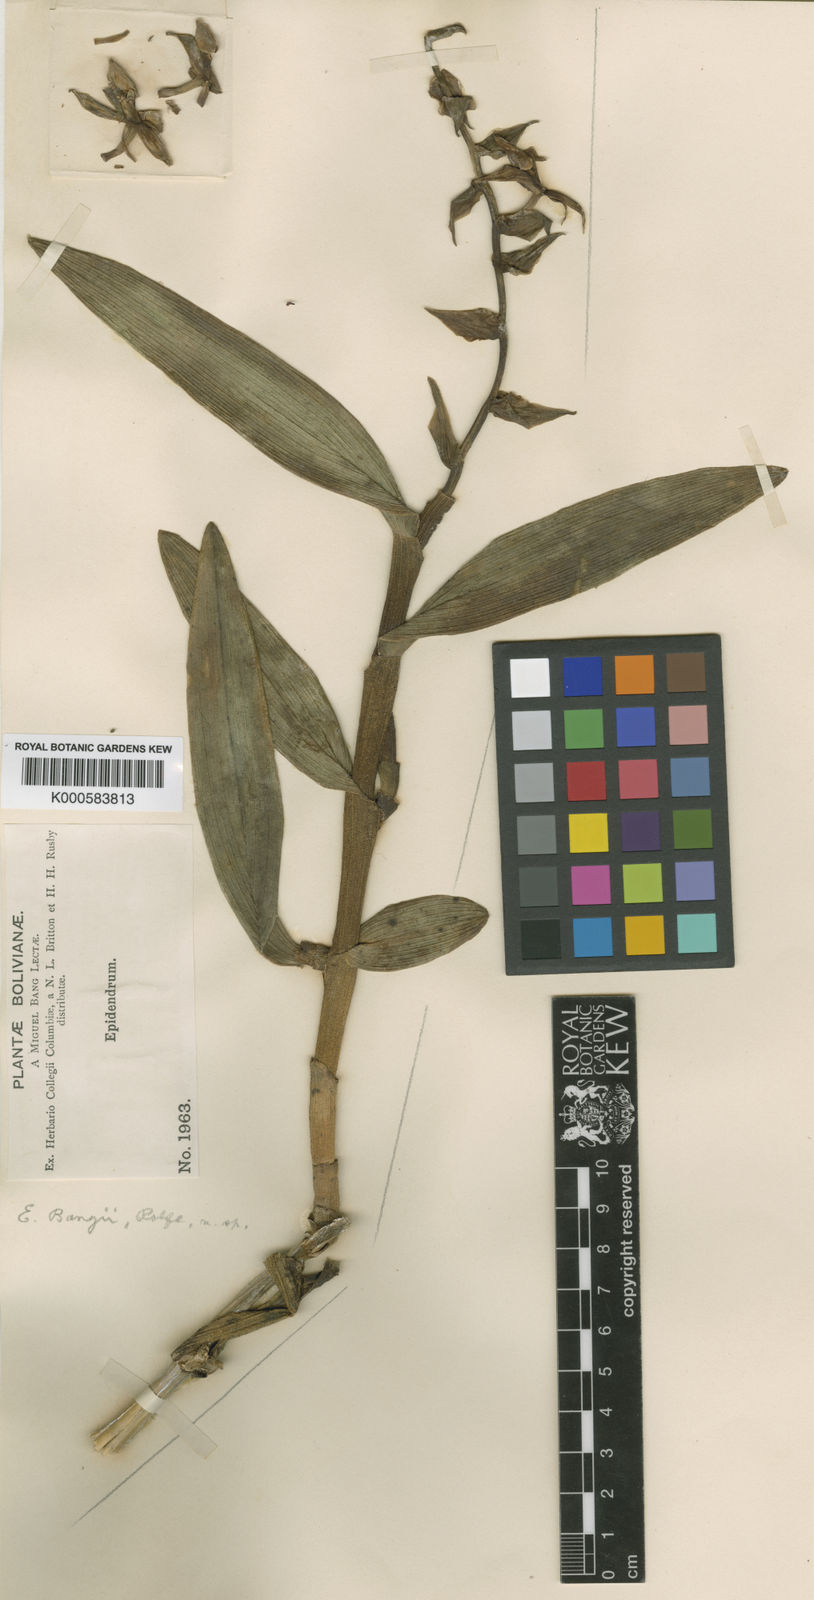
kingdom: Plantae
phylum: Tracheophyta
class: Liliopsida
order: Asparagales
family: Orchidaceae
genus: Epidendrum
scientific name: Epidendrum chondrochilum
